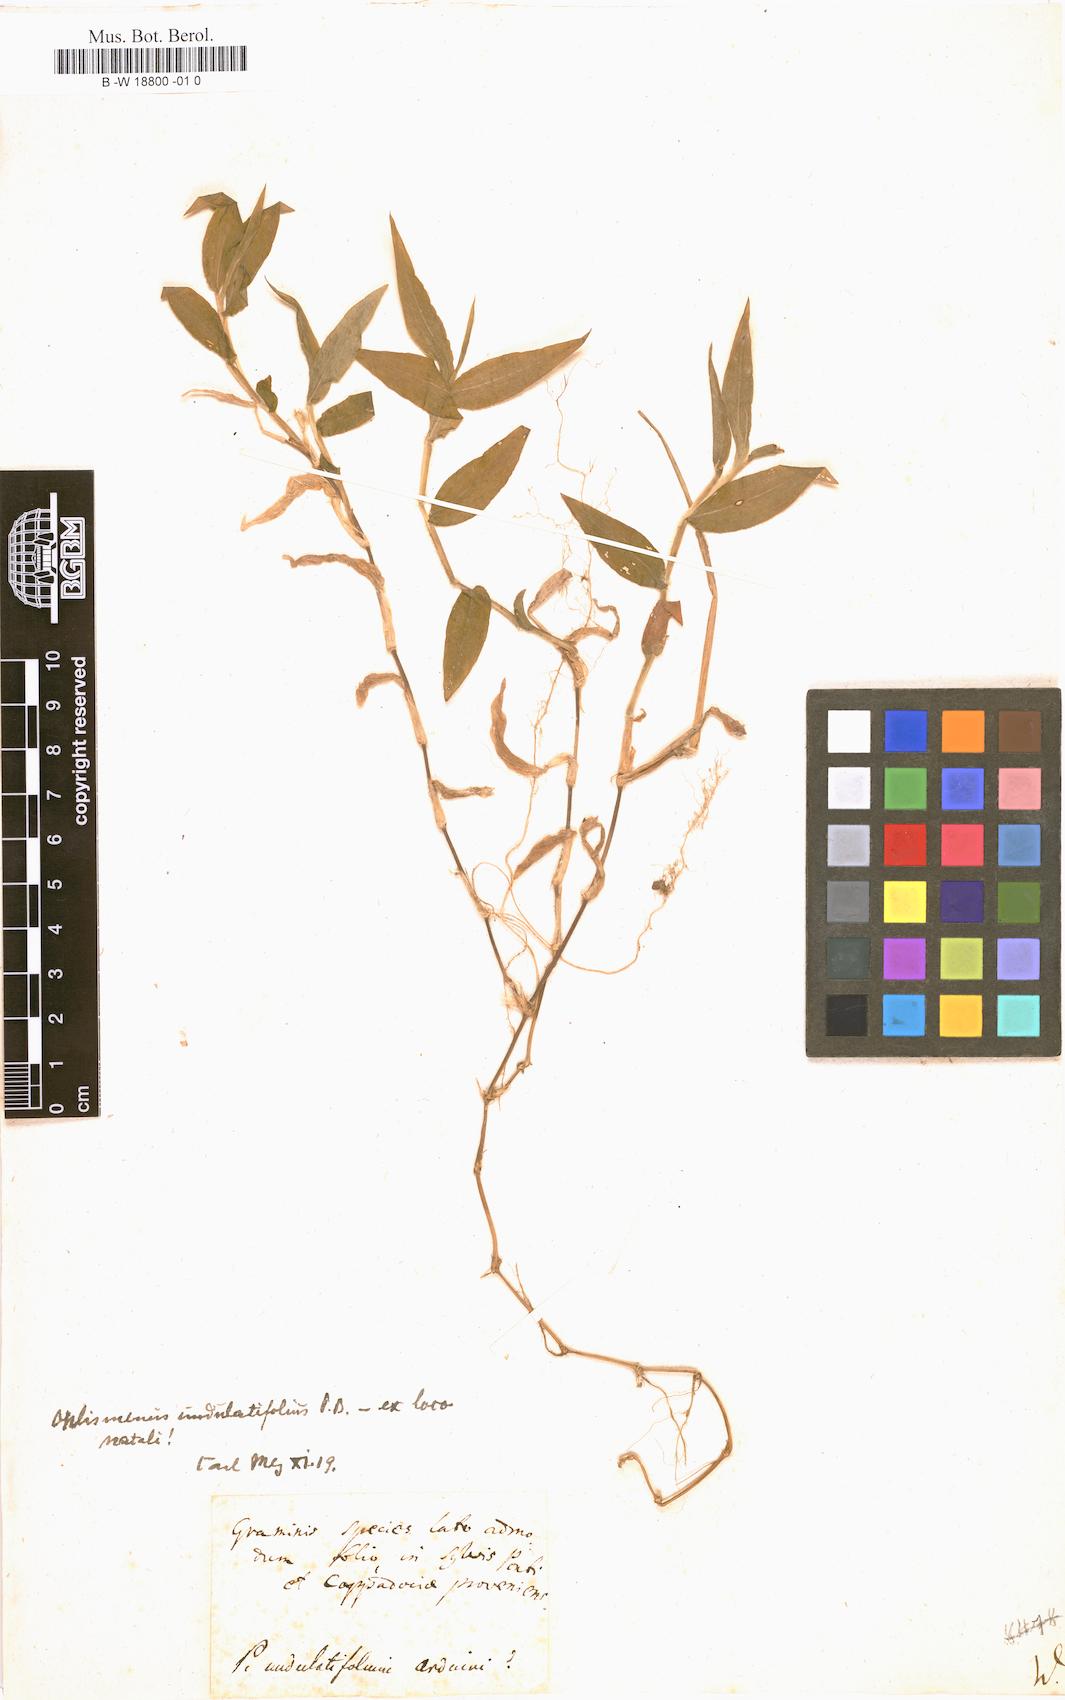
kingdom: Plantae
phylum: Tracheophyta
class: Liliopsida
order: Poales
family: Poaceae
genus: Panicum
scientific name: Panicum
